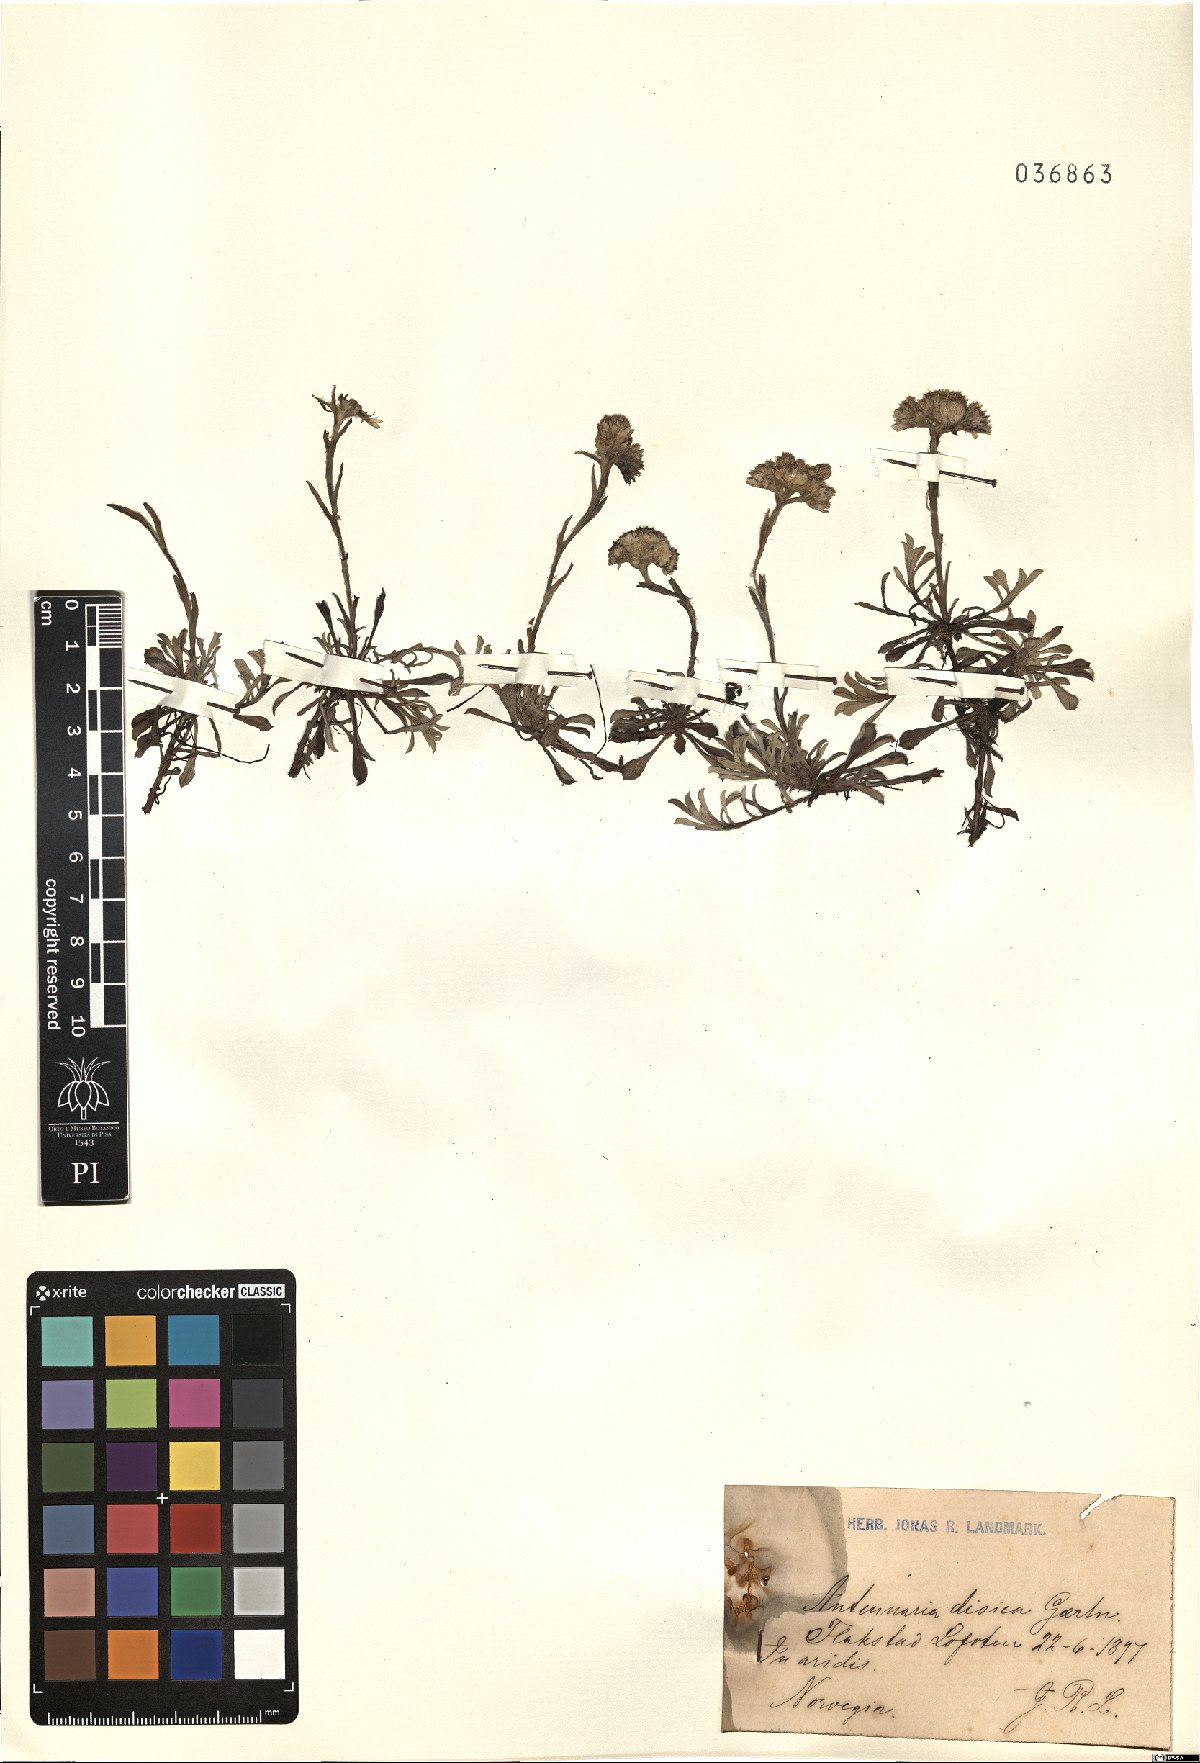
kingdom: Plantae
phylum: Tracheophyta
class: Magnoliopsida
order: Asterales
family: Asteraceae
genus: Antennaria
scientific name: Antennaria dioica
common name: Mountain everlasting
